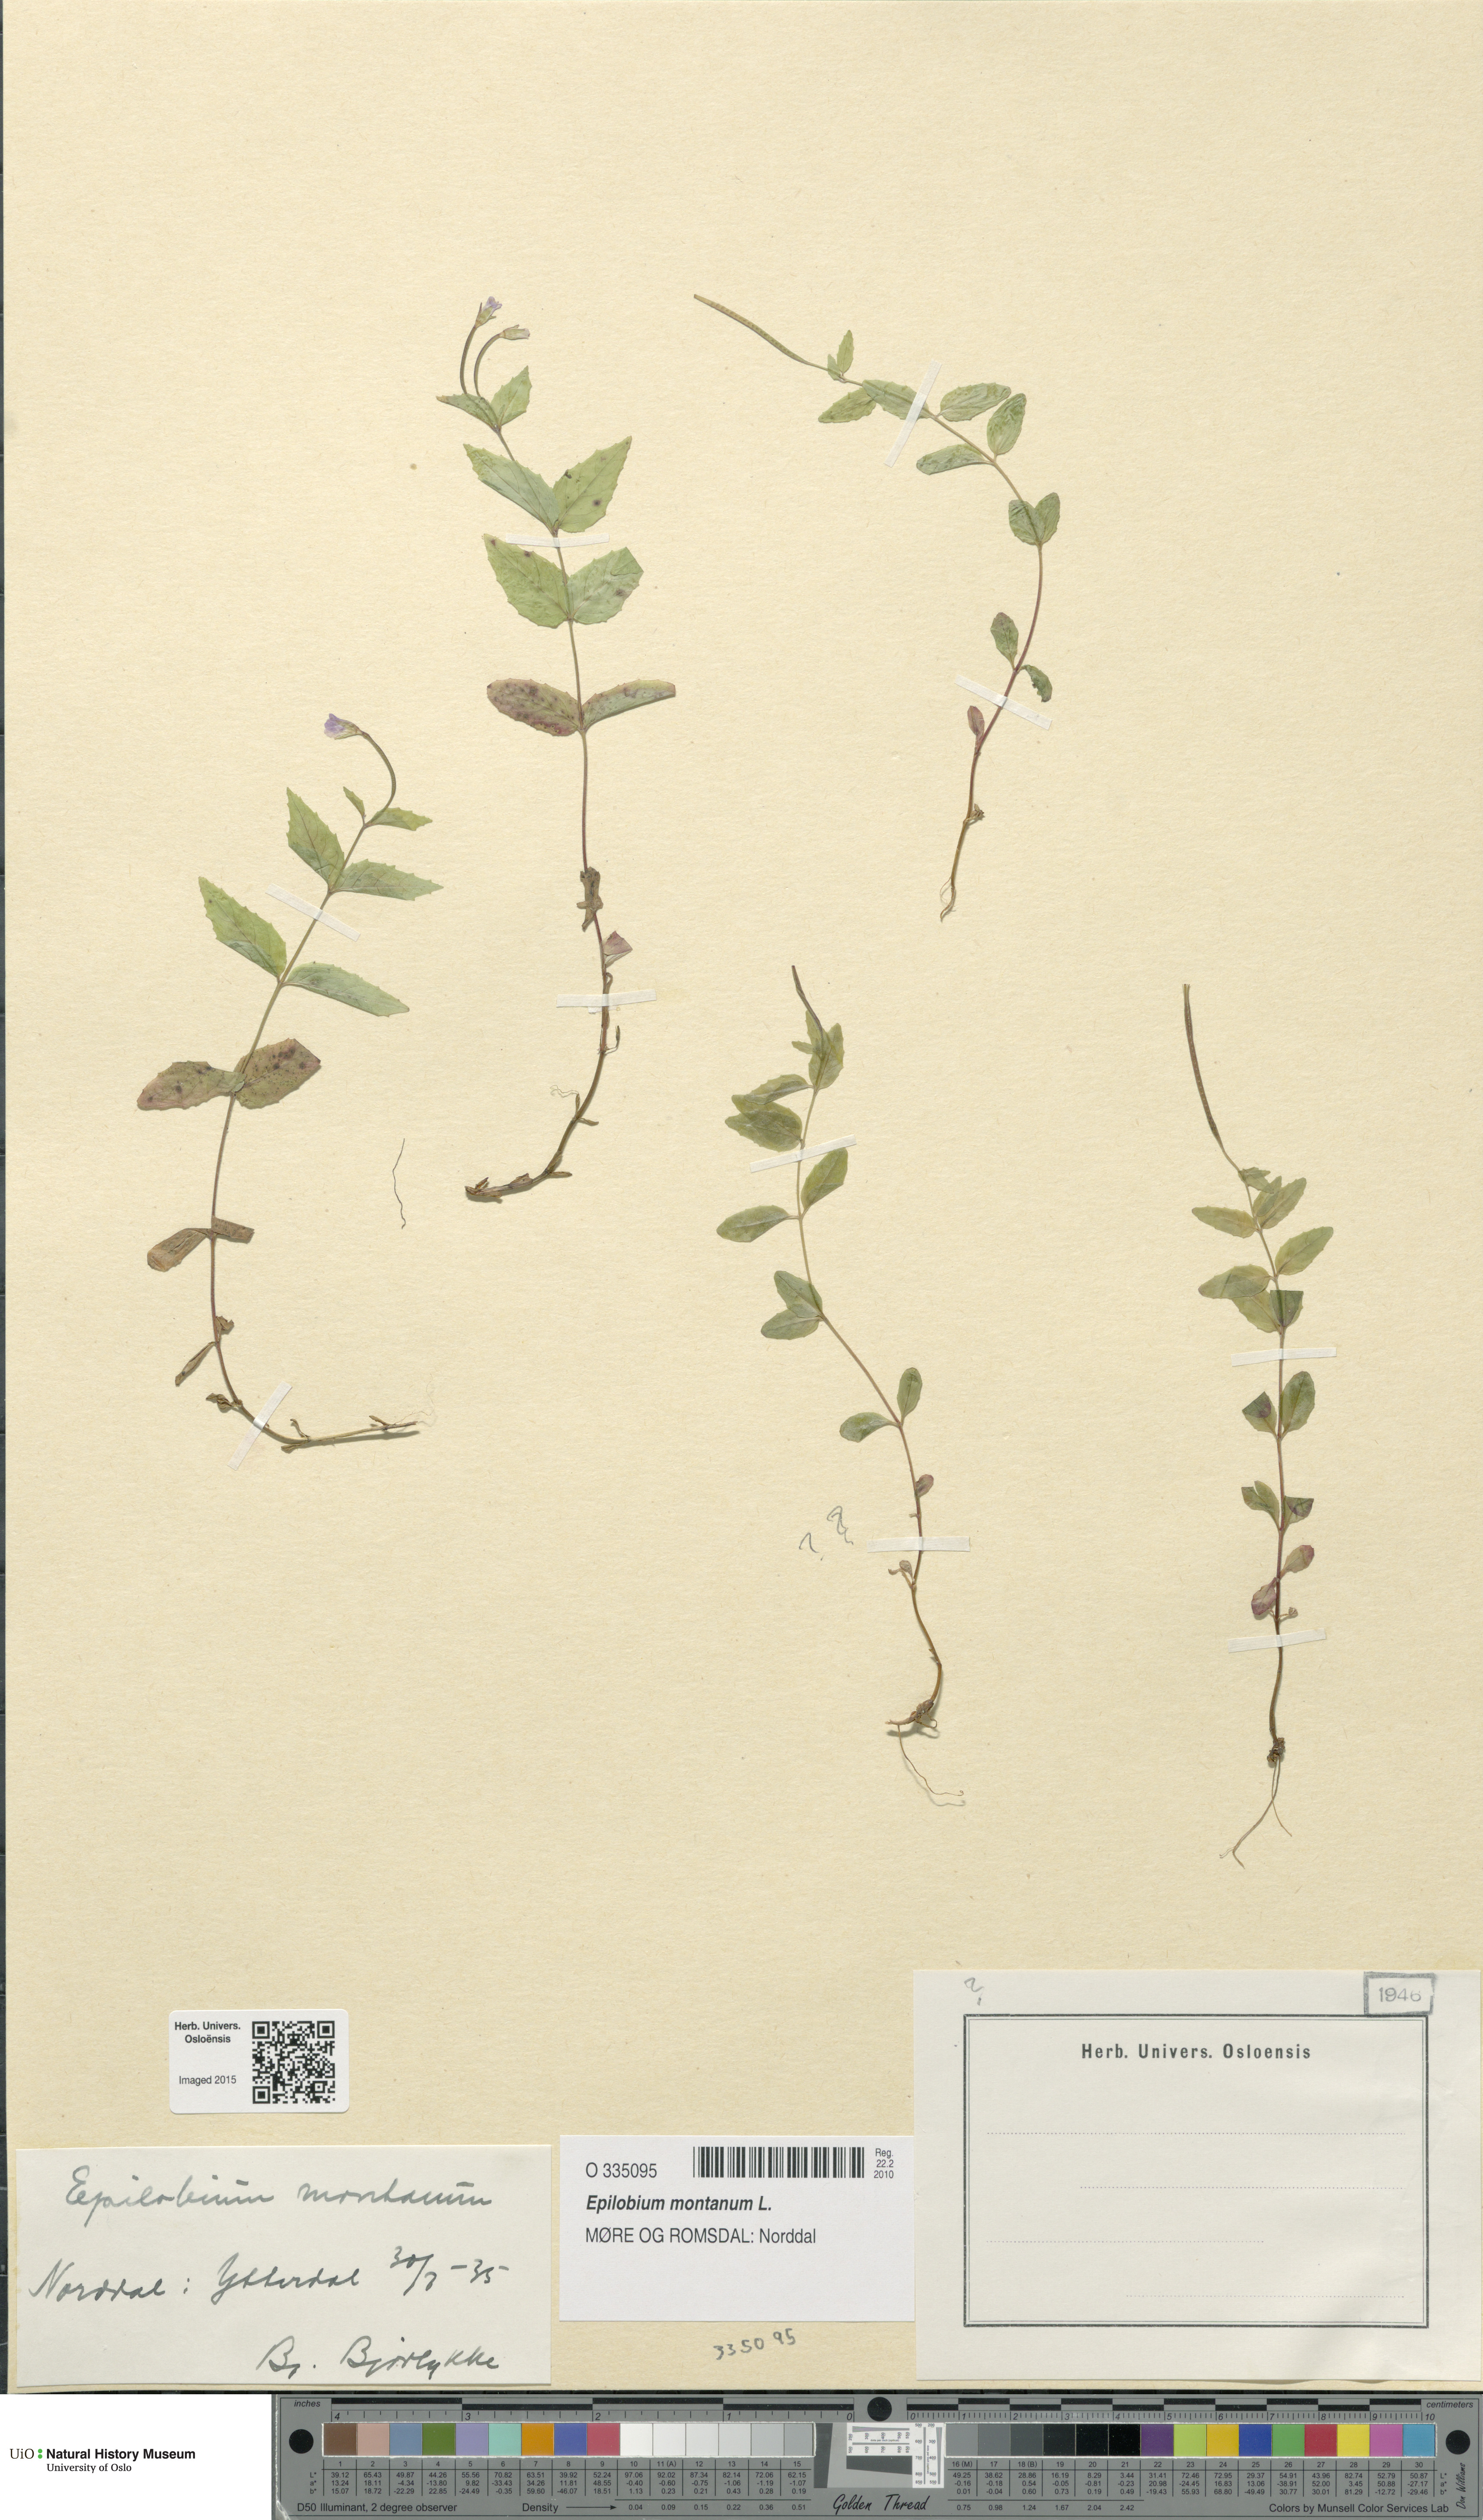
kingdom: Plantae
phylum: Tracheophyta
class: Magnoliopsida
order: Myrtales
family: Onagraceae
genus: Epilobium
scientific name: Epilobium montanum
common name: Broad-leaved willowherb
